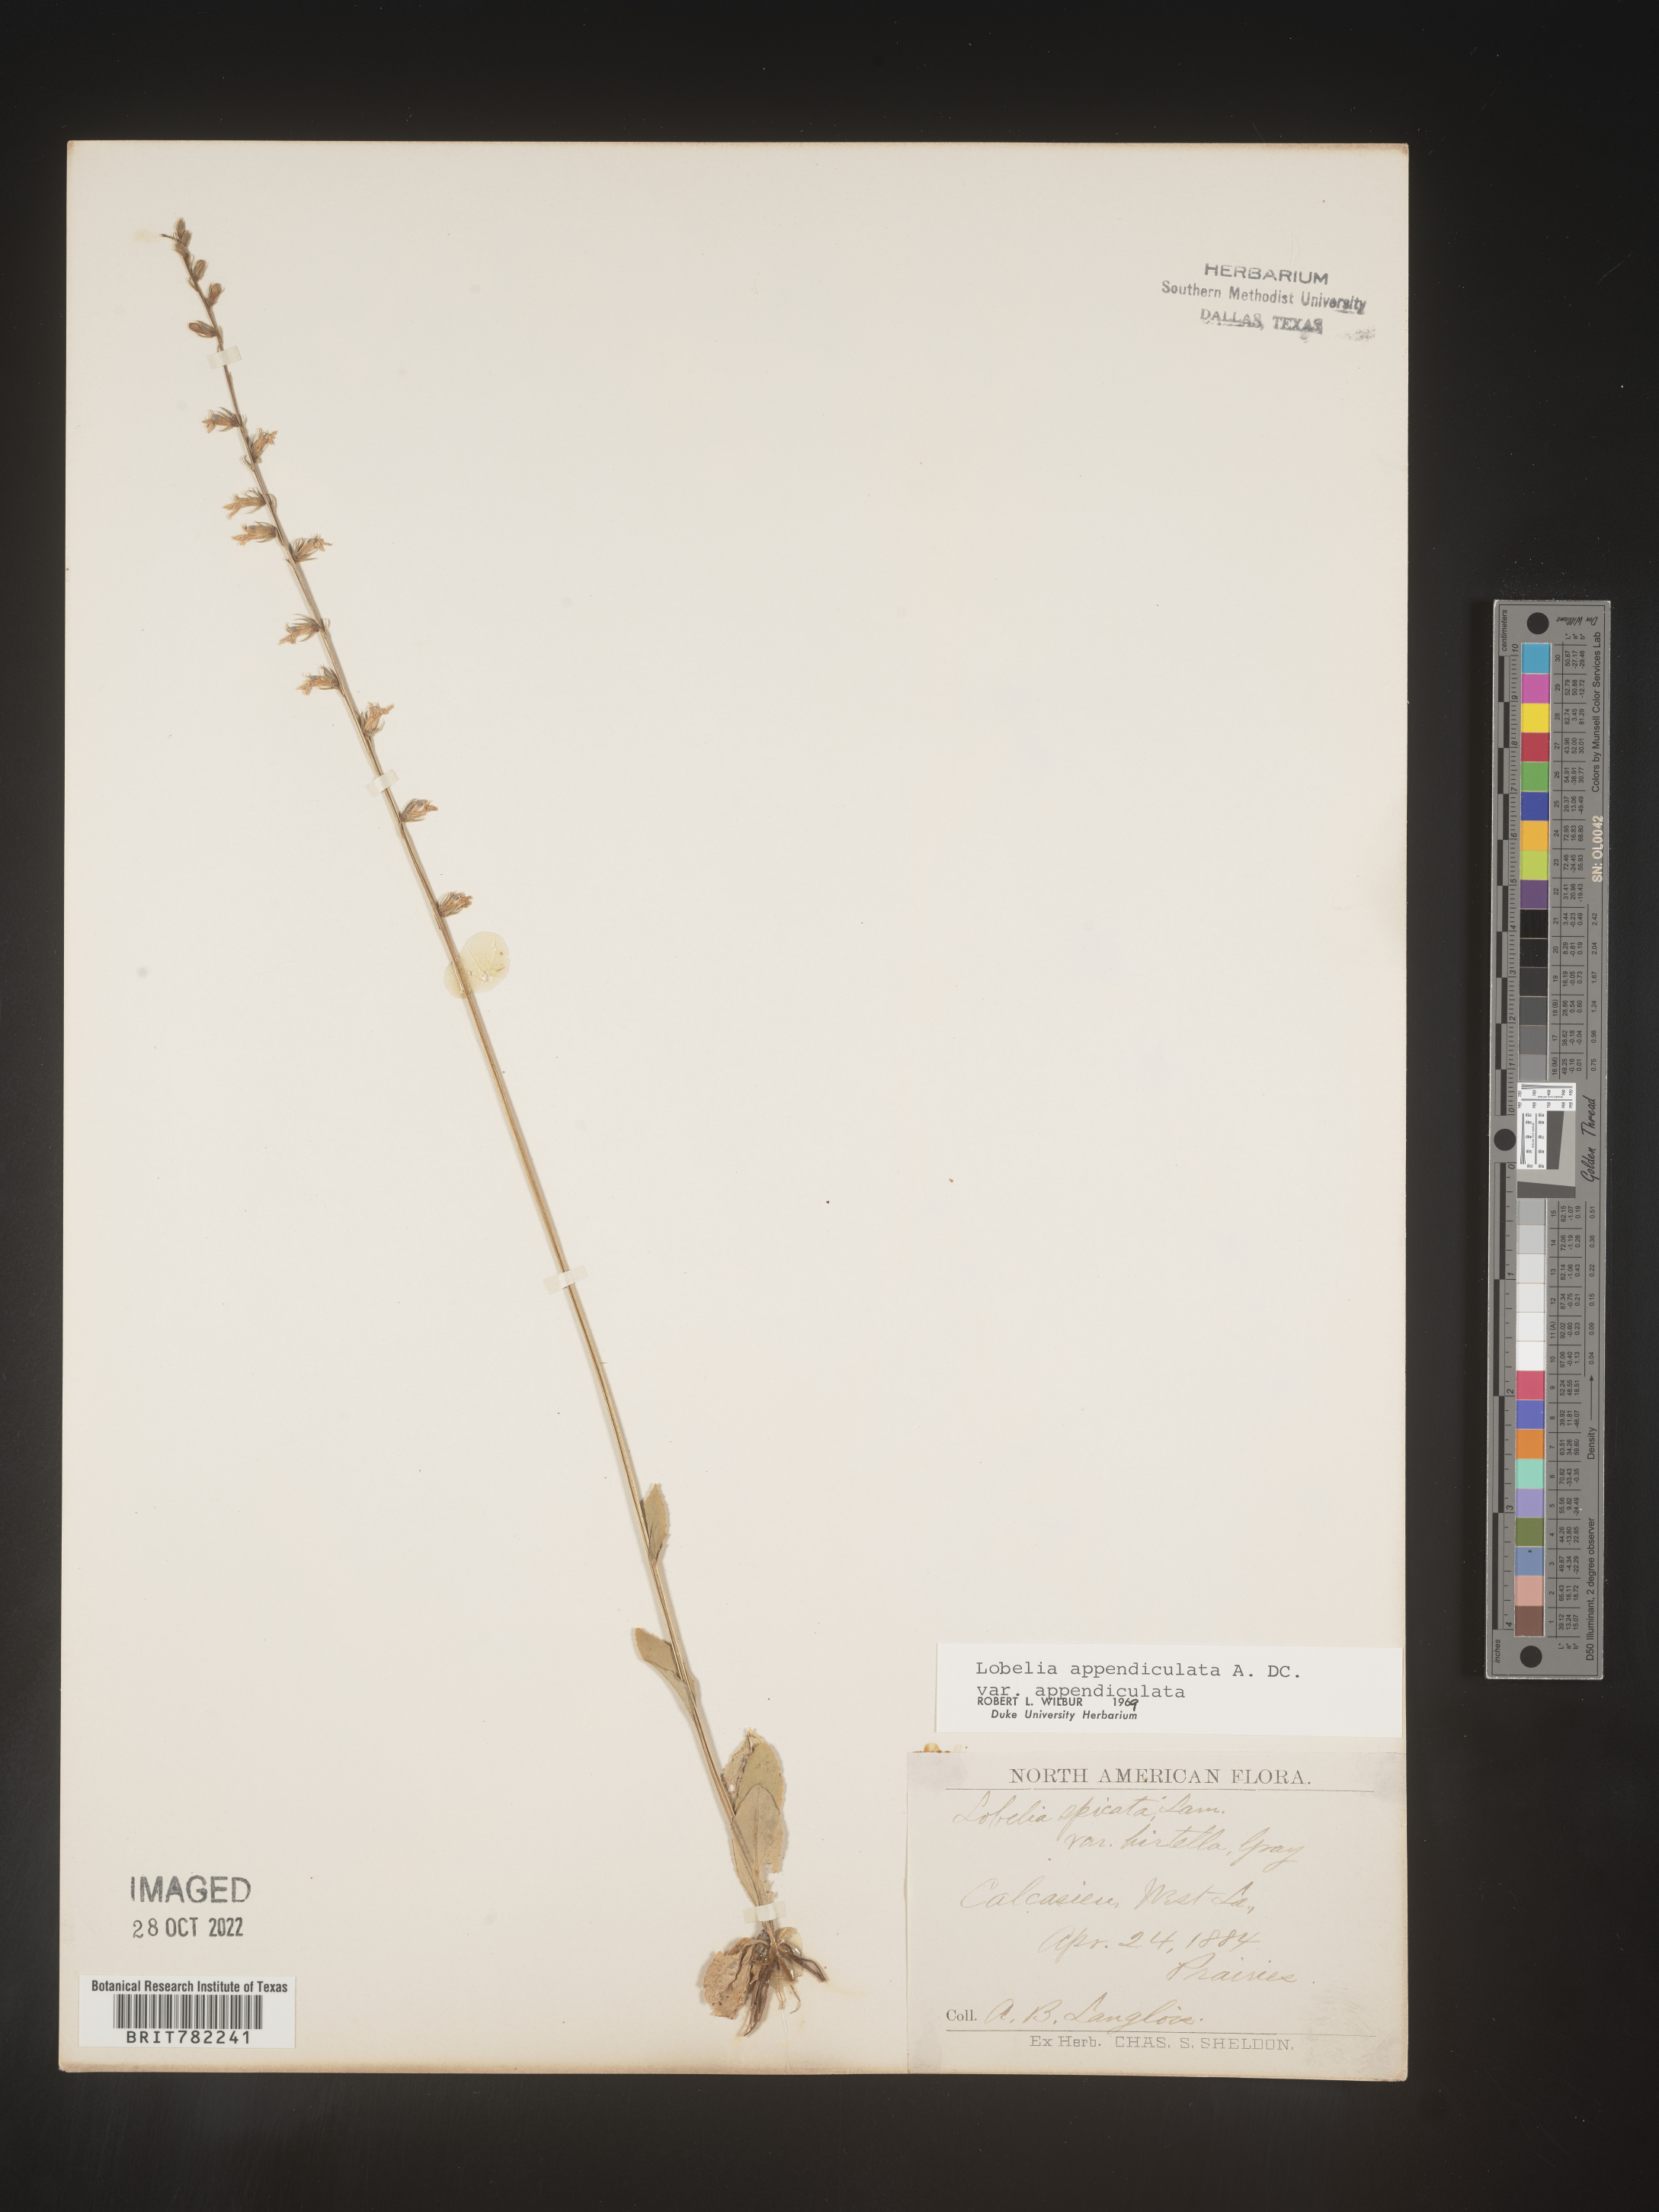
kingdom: Plantae
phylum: Tracheophyta
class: Magnoliopsida
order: Asterales
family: Campanulaceae
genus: Lobelia
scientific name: Lobelia appendiculata
